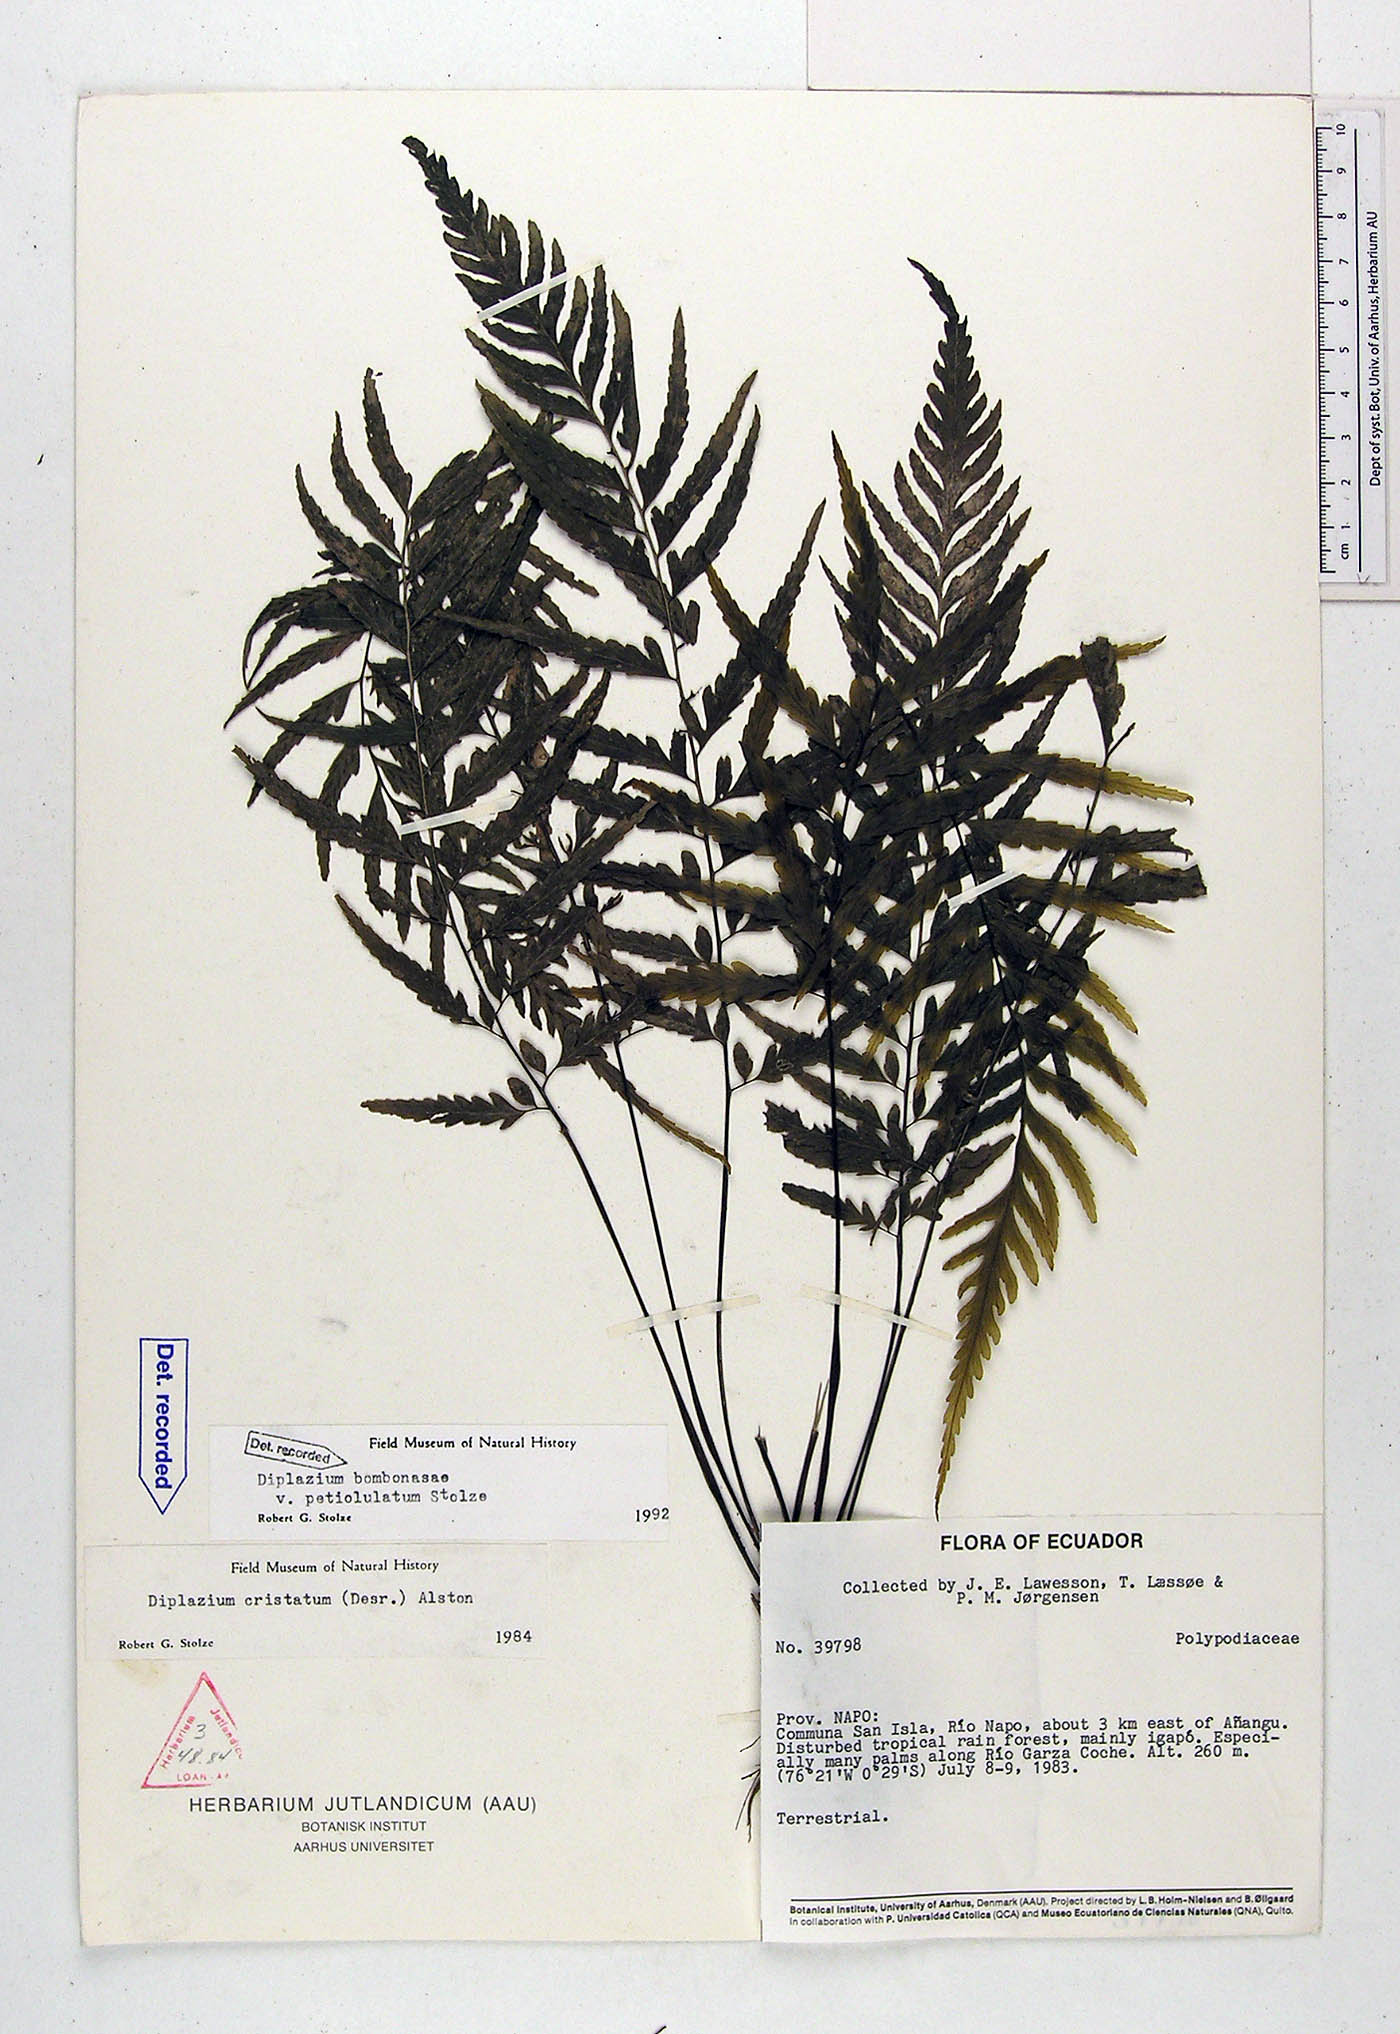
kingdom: Plantae
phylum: Tracheophyta
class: Polypodiopsida
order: Polypodiales
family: Athyriaceae
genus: Diplazium
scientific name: Diplazium bombonasae
